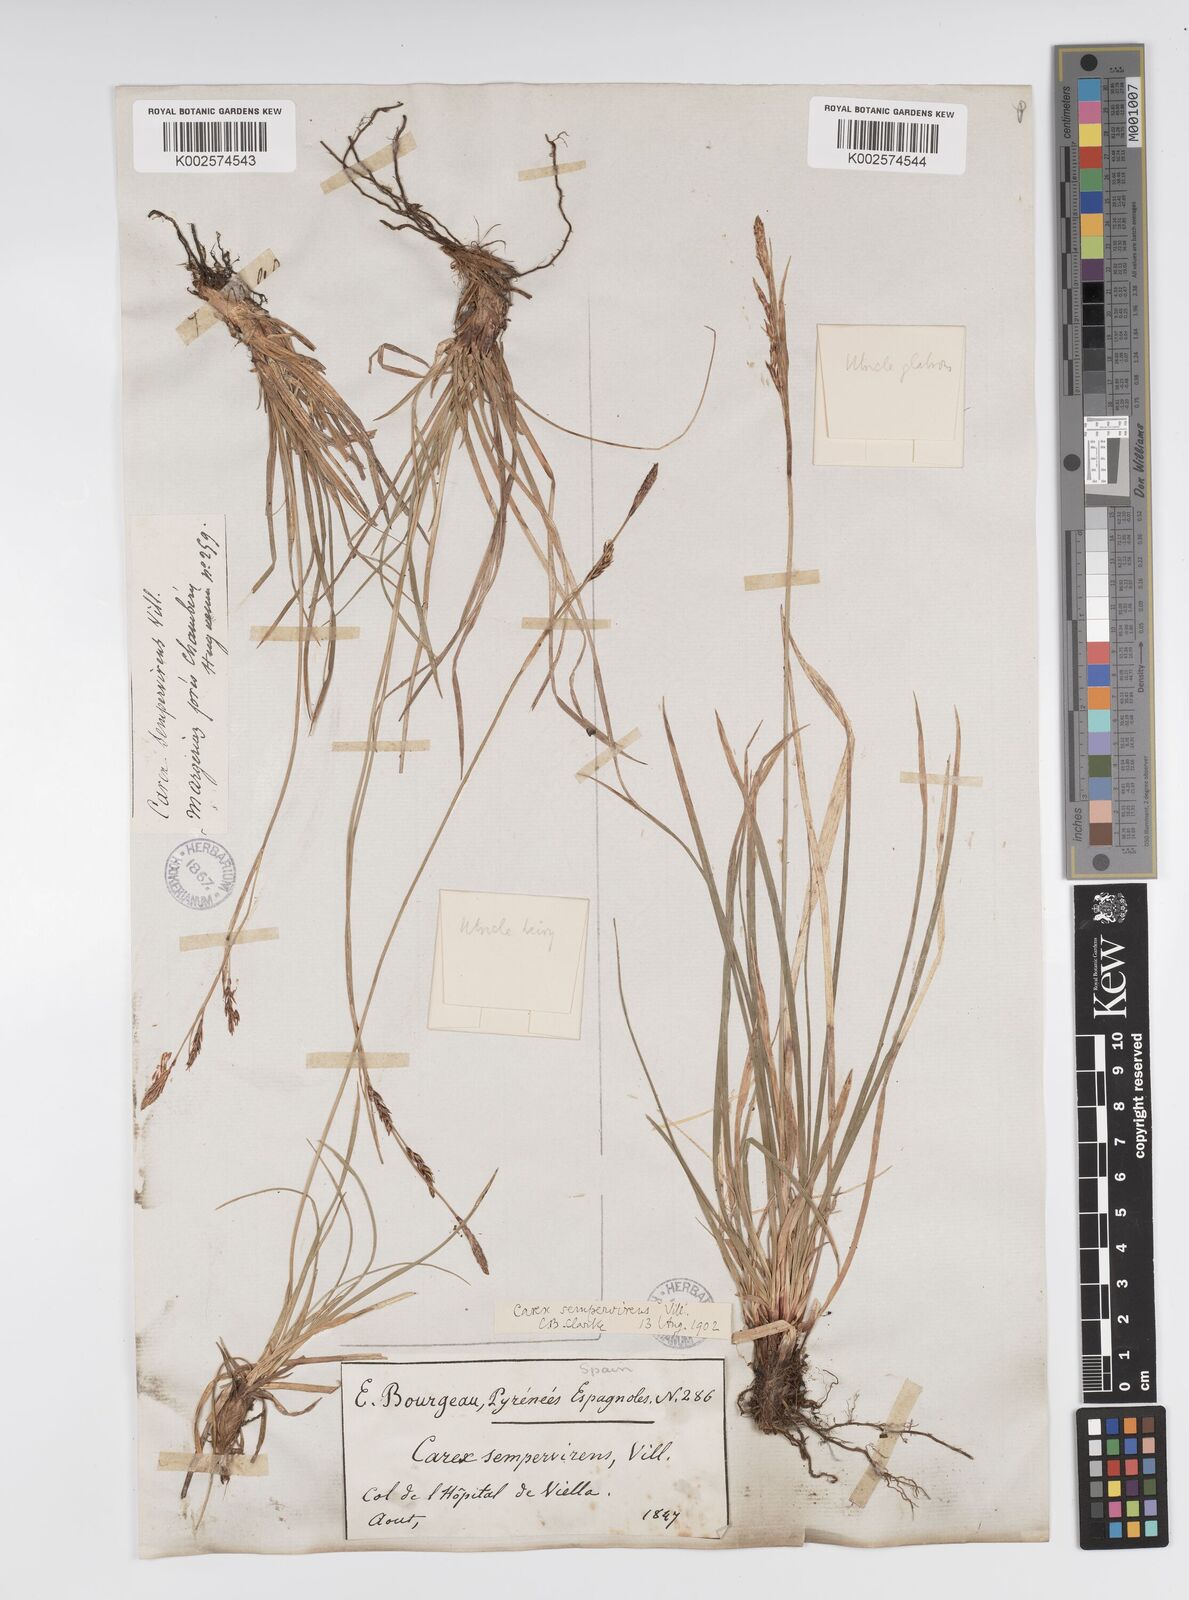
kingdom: Plantae
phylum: Tracheophyta
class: Liliopsida
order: Poales
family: Cyperaceae
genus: Carex
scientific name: Carex sempervirens
